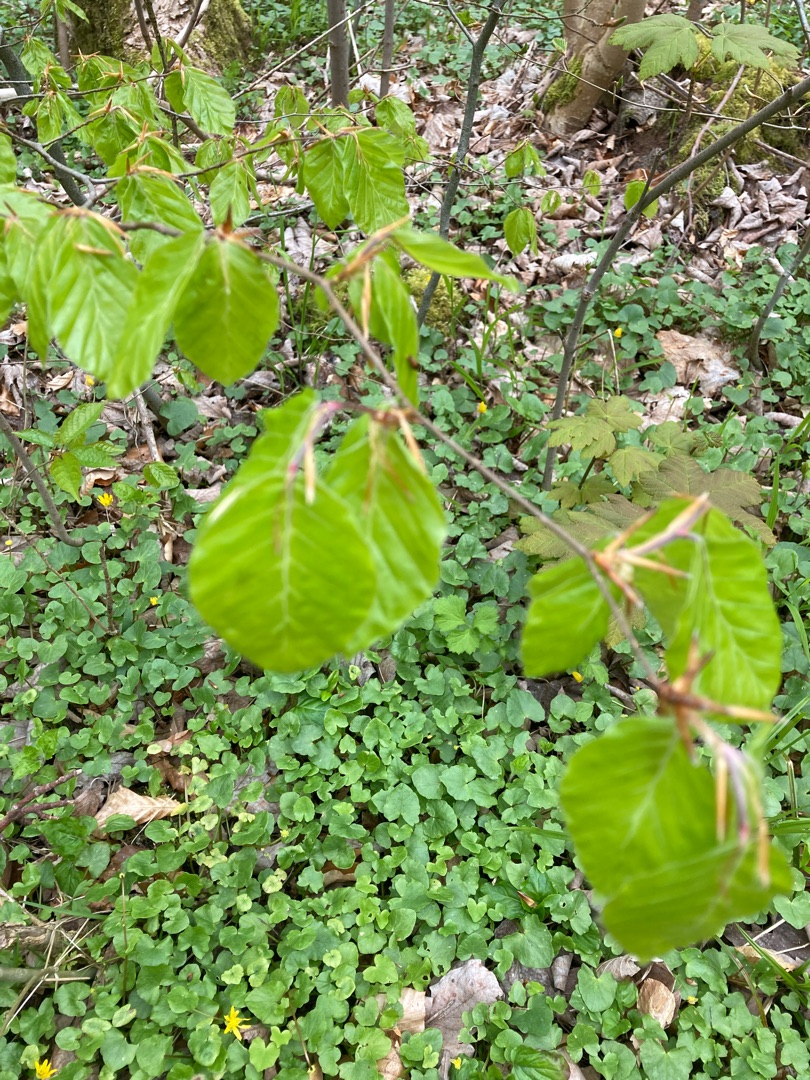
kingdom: Plantae
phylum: Tracheophyta
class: Magnoliopsida
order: Fagales
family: Fagaceae
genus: Fagus
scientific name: Fagus sylvatica
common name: Bøg
